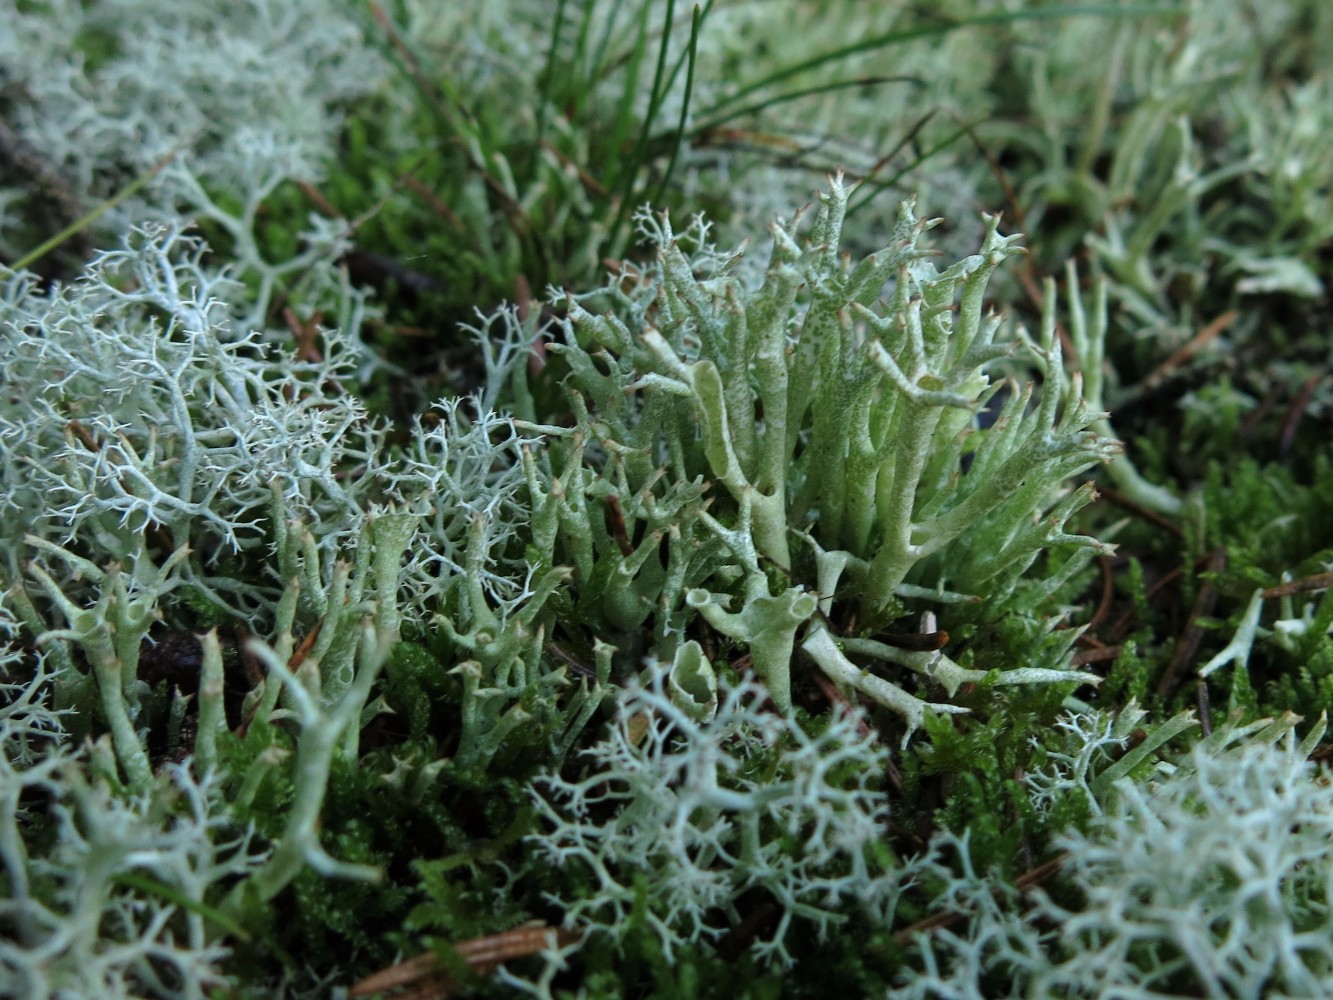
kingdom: Fungi
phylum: Ascomycota
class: Lecanoromycetes
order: Lecanorales
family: Cladoniaceae
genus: Cladonia
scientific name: Cladonia uncialis
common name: pigget bægerlav
